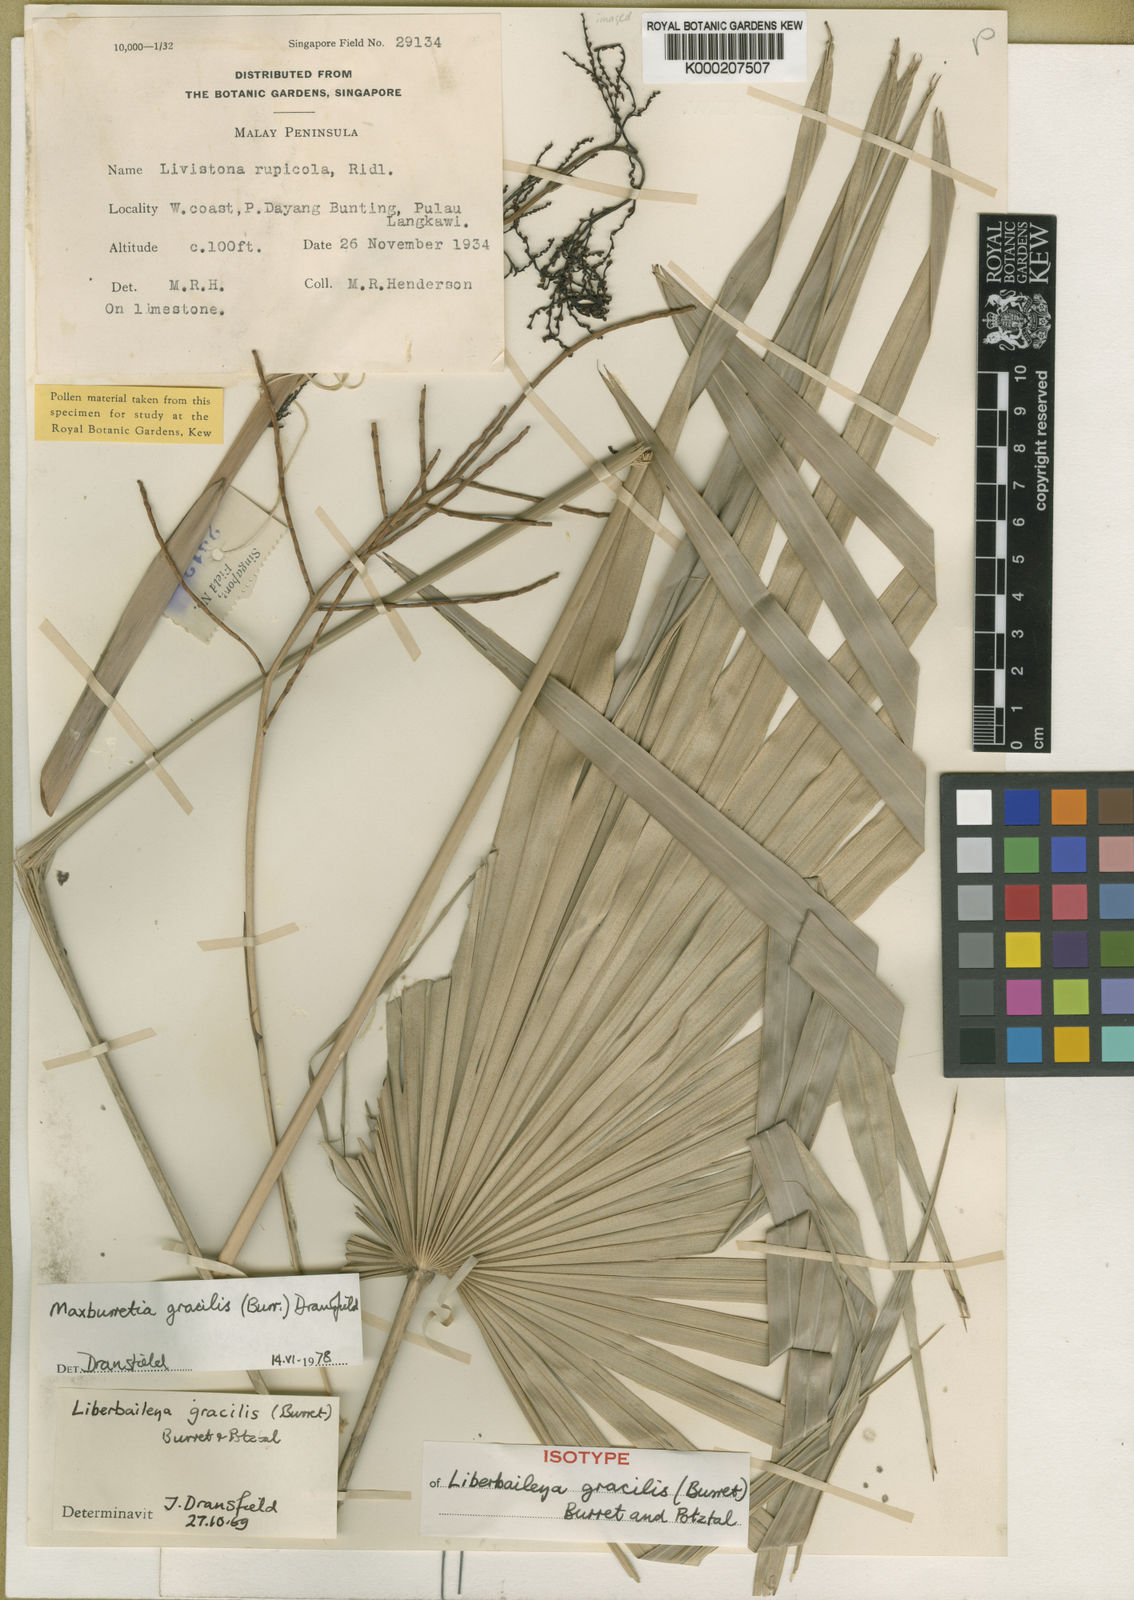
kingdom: Plantae
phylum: Tracheophyta
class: Liliopsida
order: Arecales
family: Arecaceae
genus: Maxburretia
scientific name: Maxburretia gracilis
